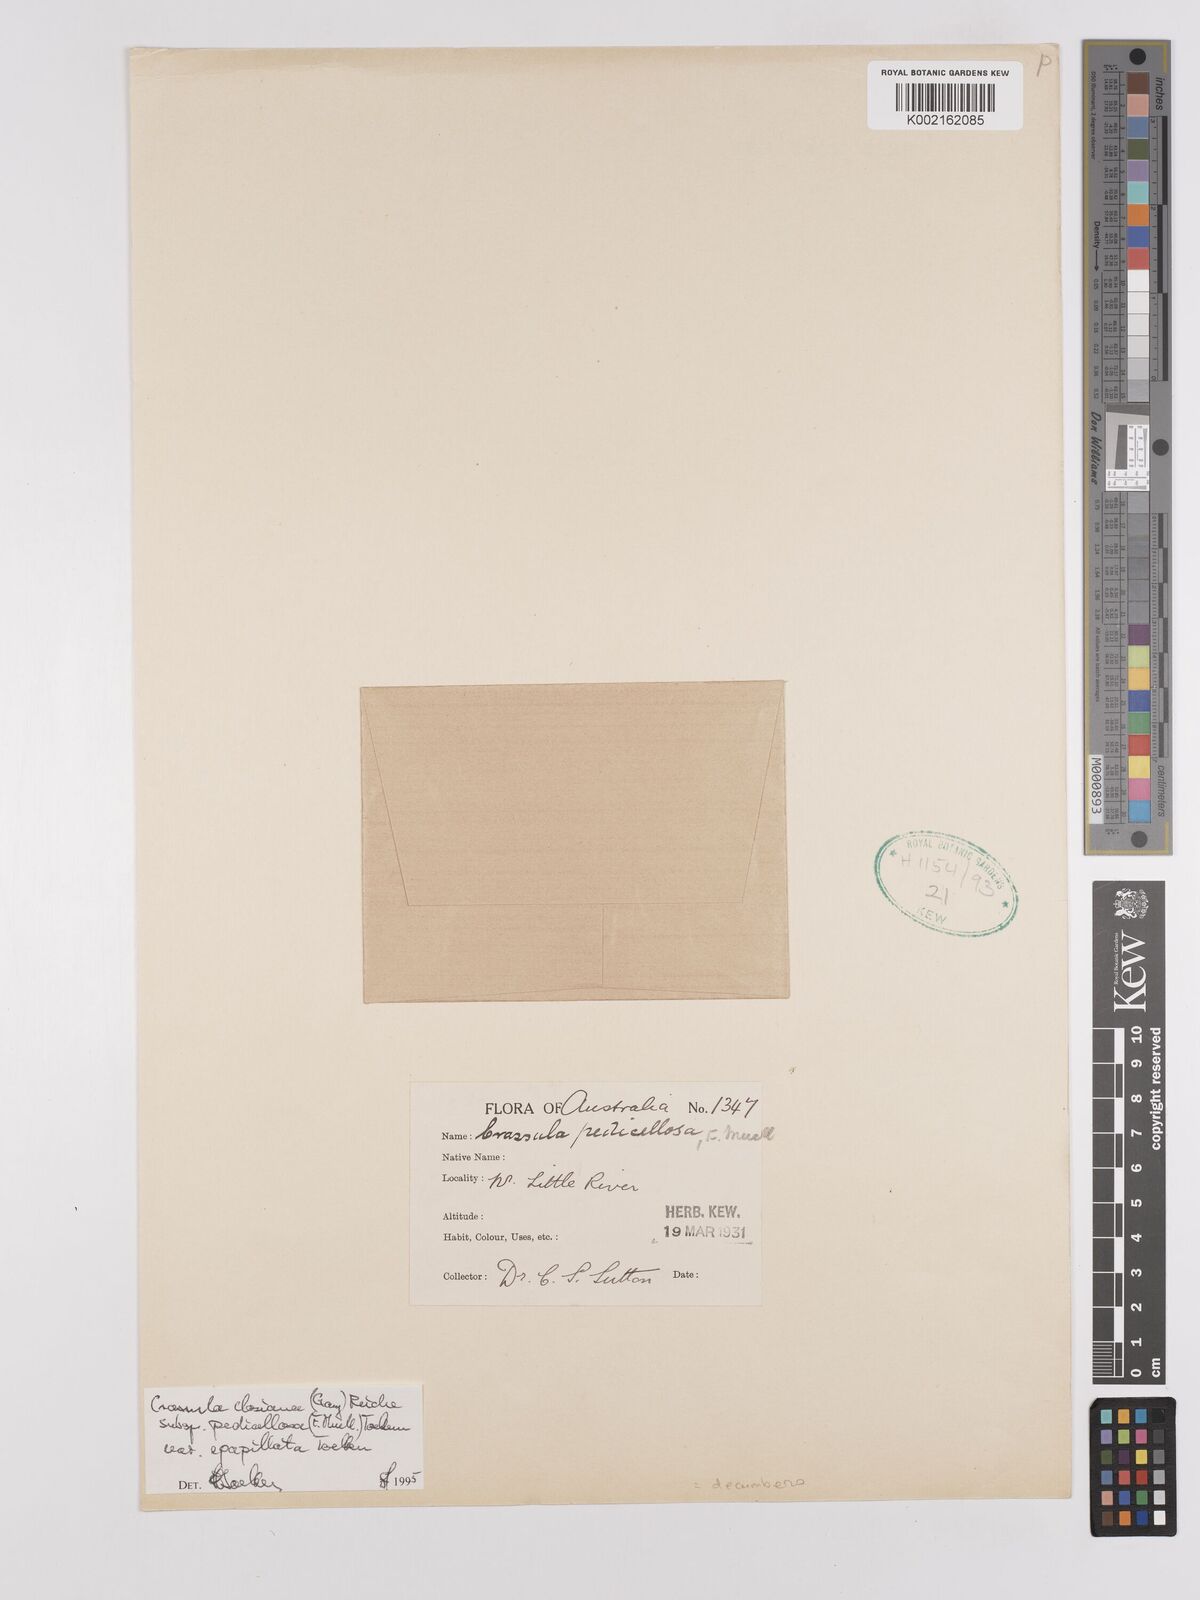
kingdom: Plantae
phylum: Tracheophyta
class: Magnoliopsida
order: Saxifragales
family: Crassulaceae
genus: Crassula
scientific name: Crassula closiana
